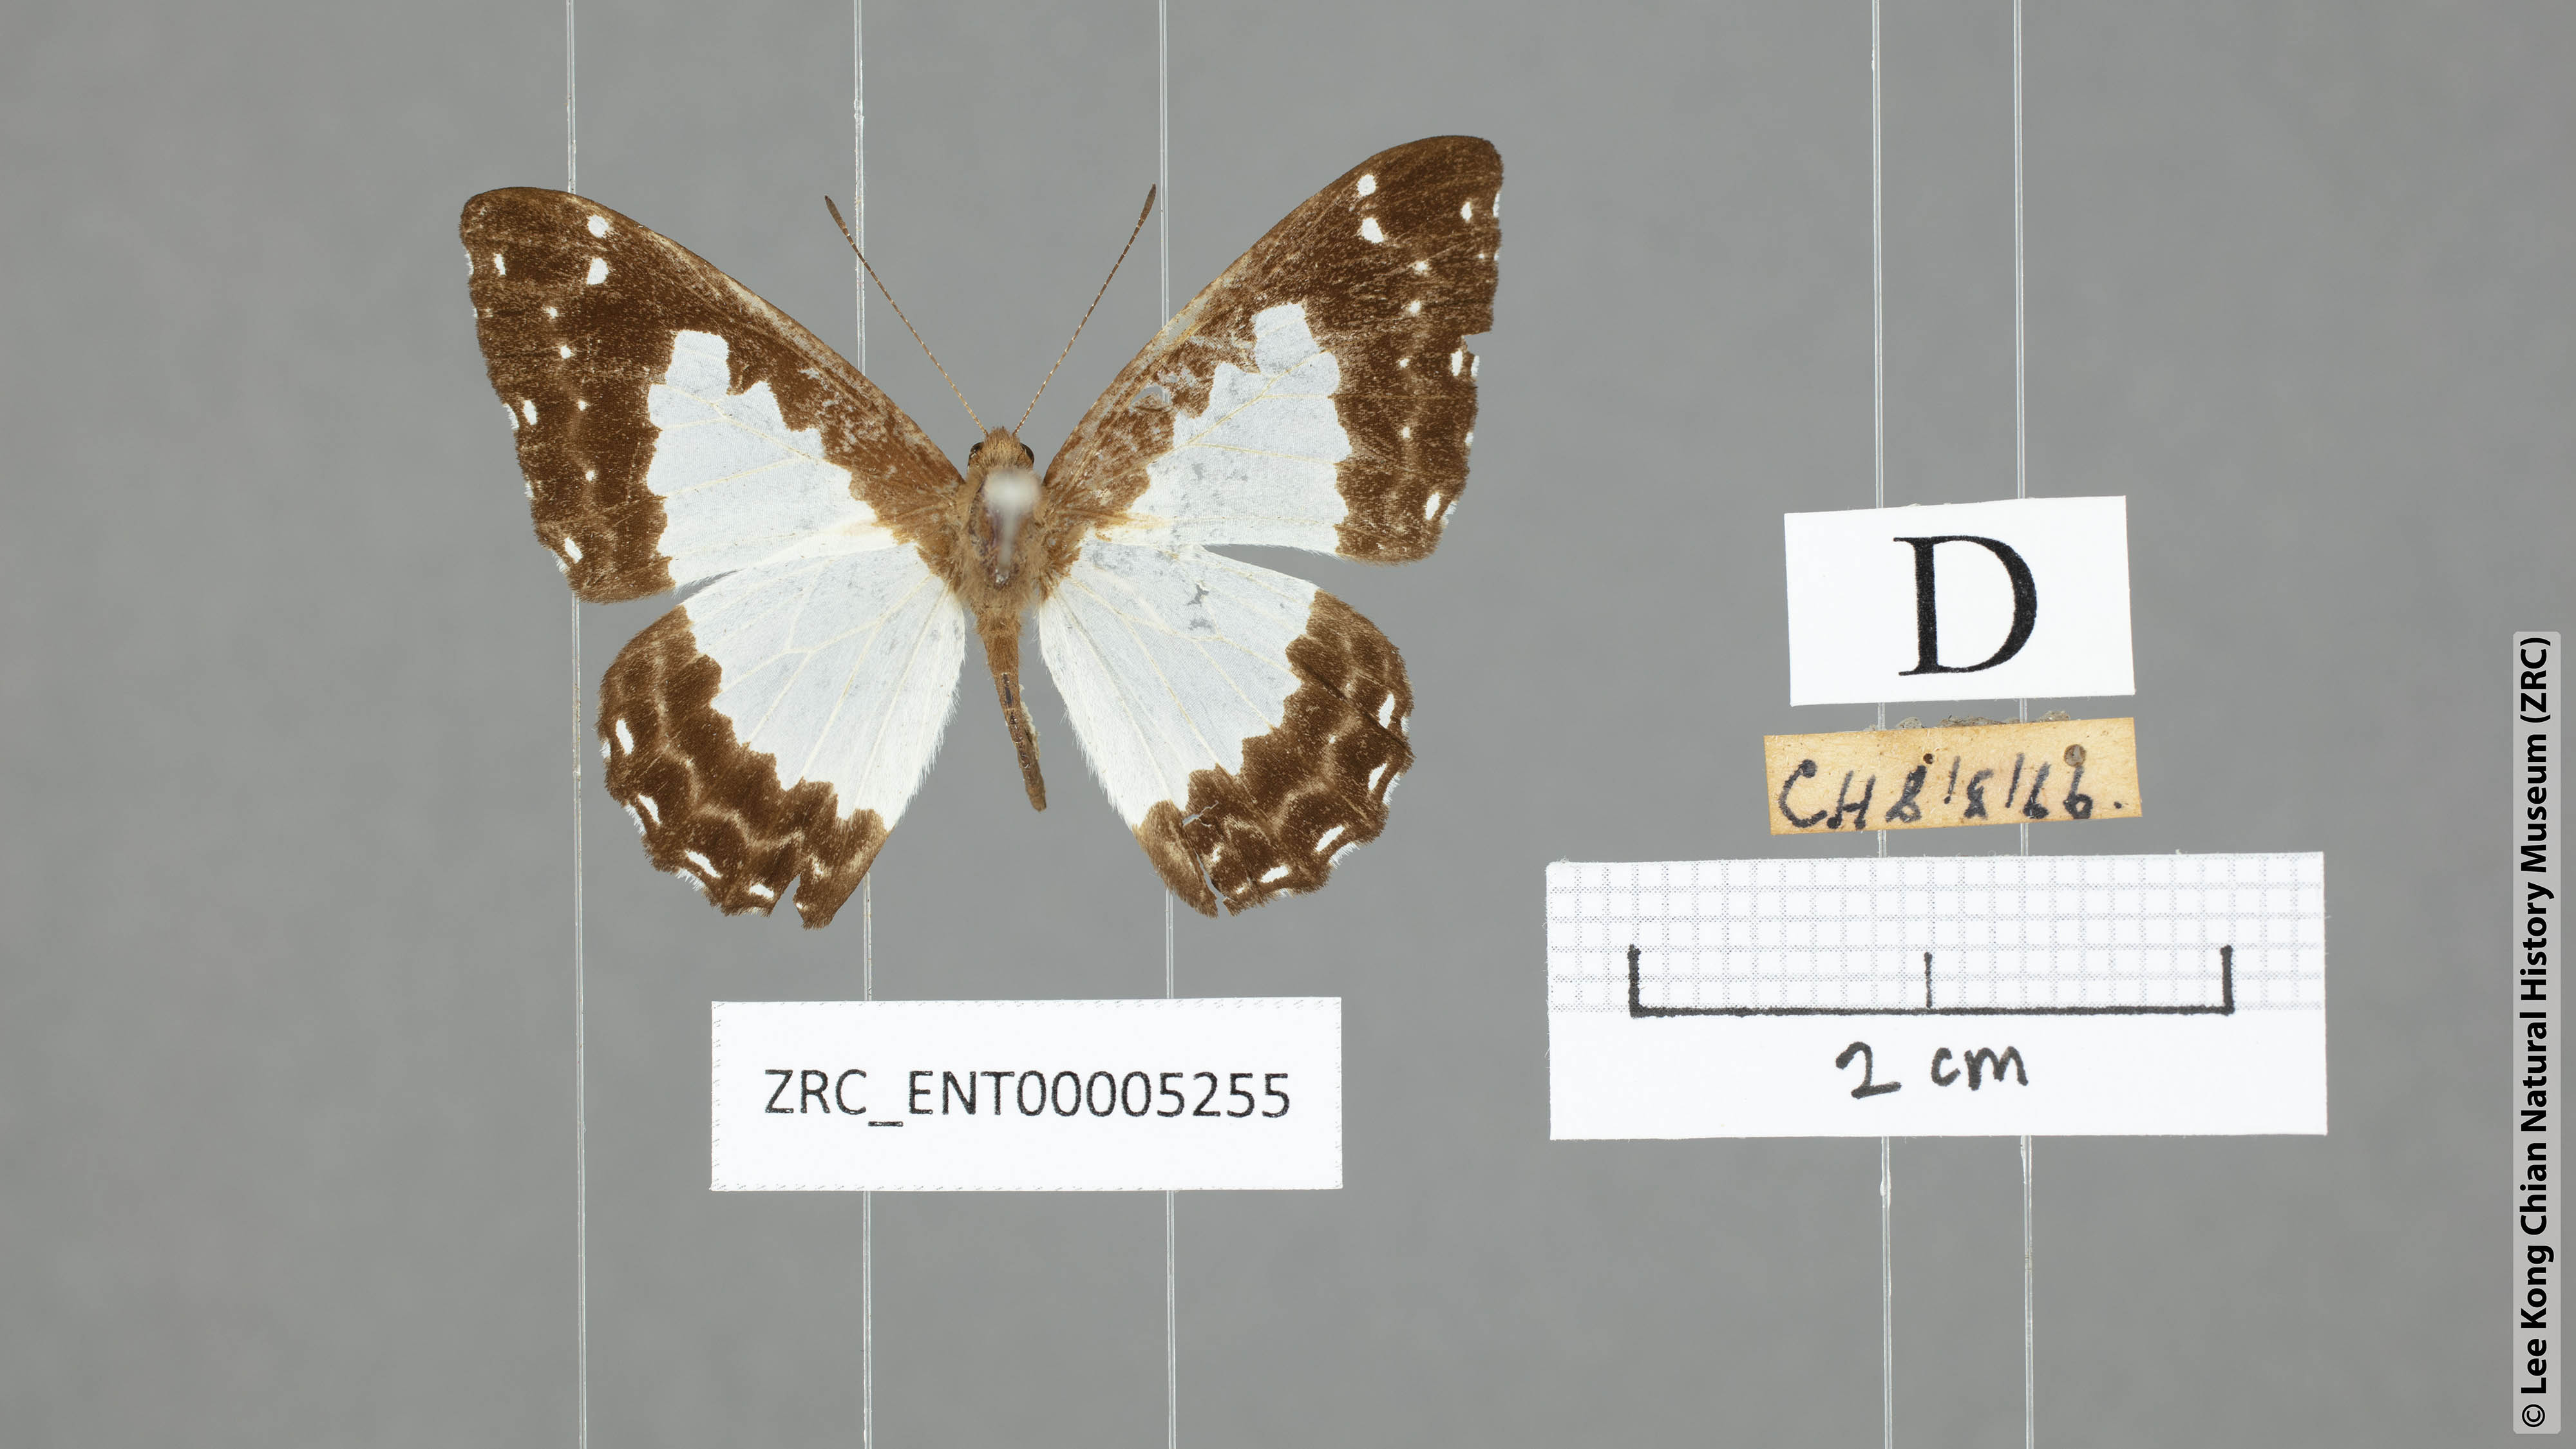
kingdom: Animalia
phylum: Arthropoda
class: Insecta
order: Lepidoptera
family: Riodinidae
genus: Stiboges
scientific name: Stiboges nymphidia
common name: Columbine
